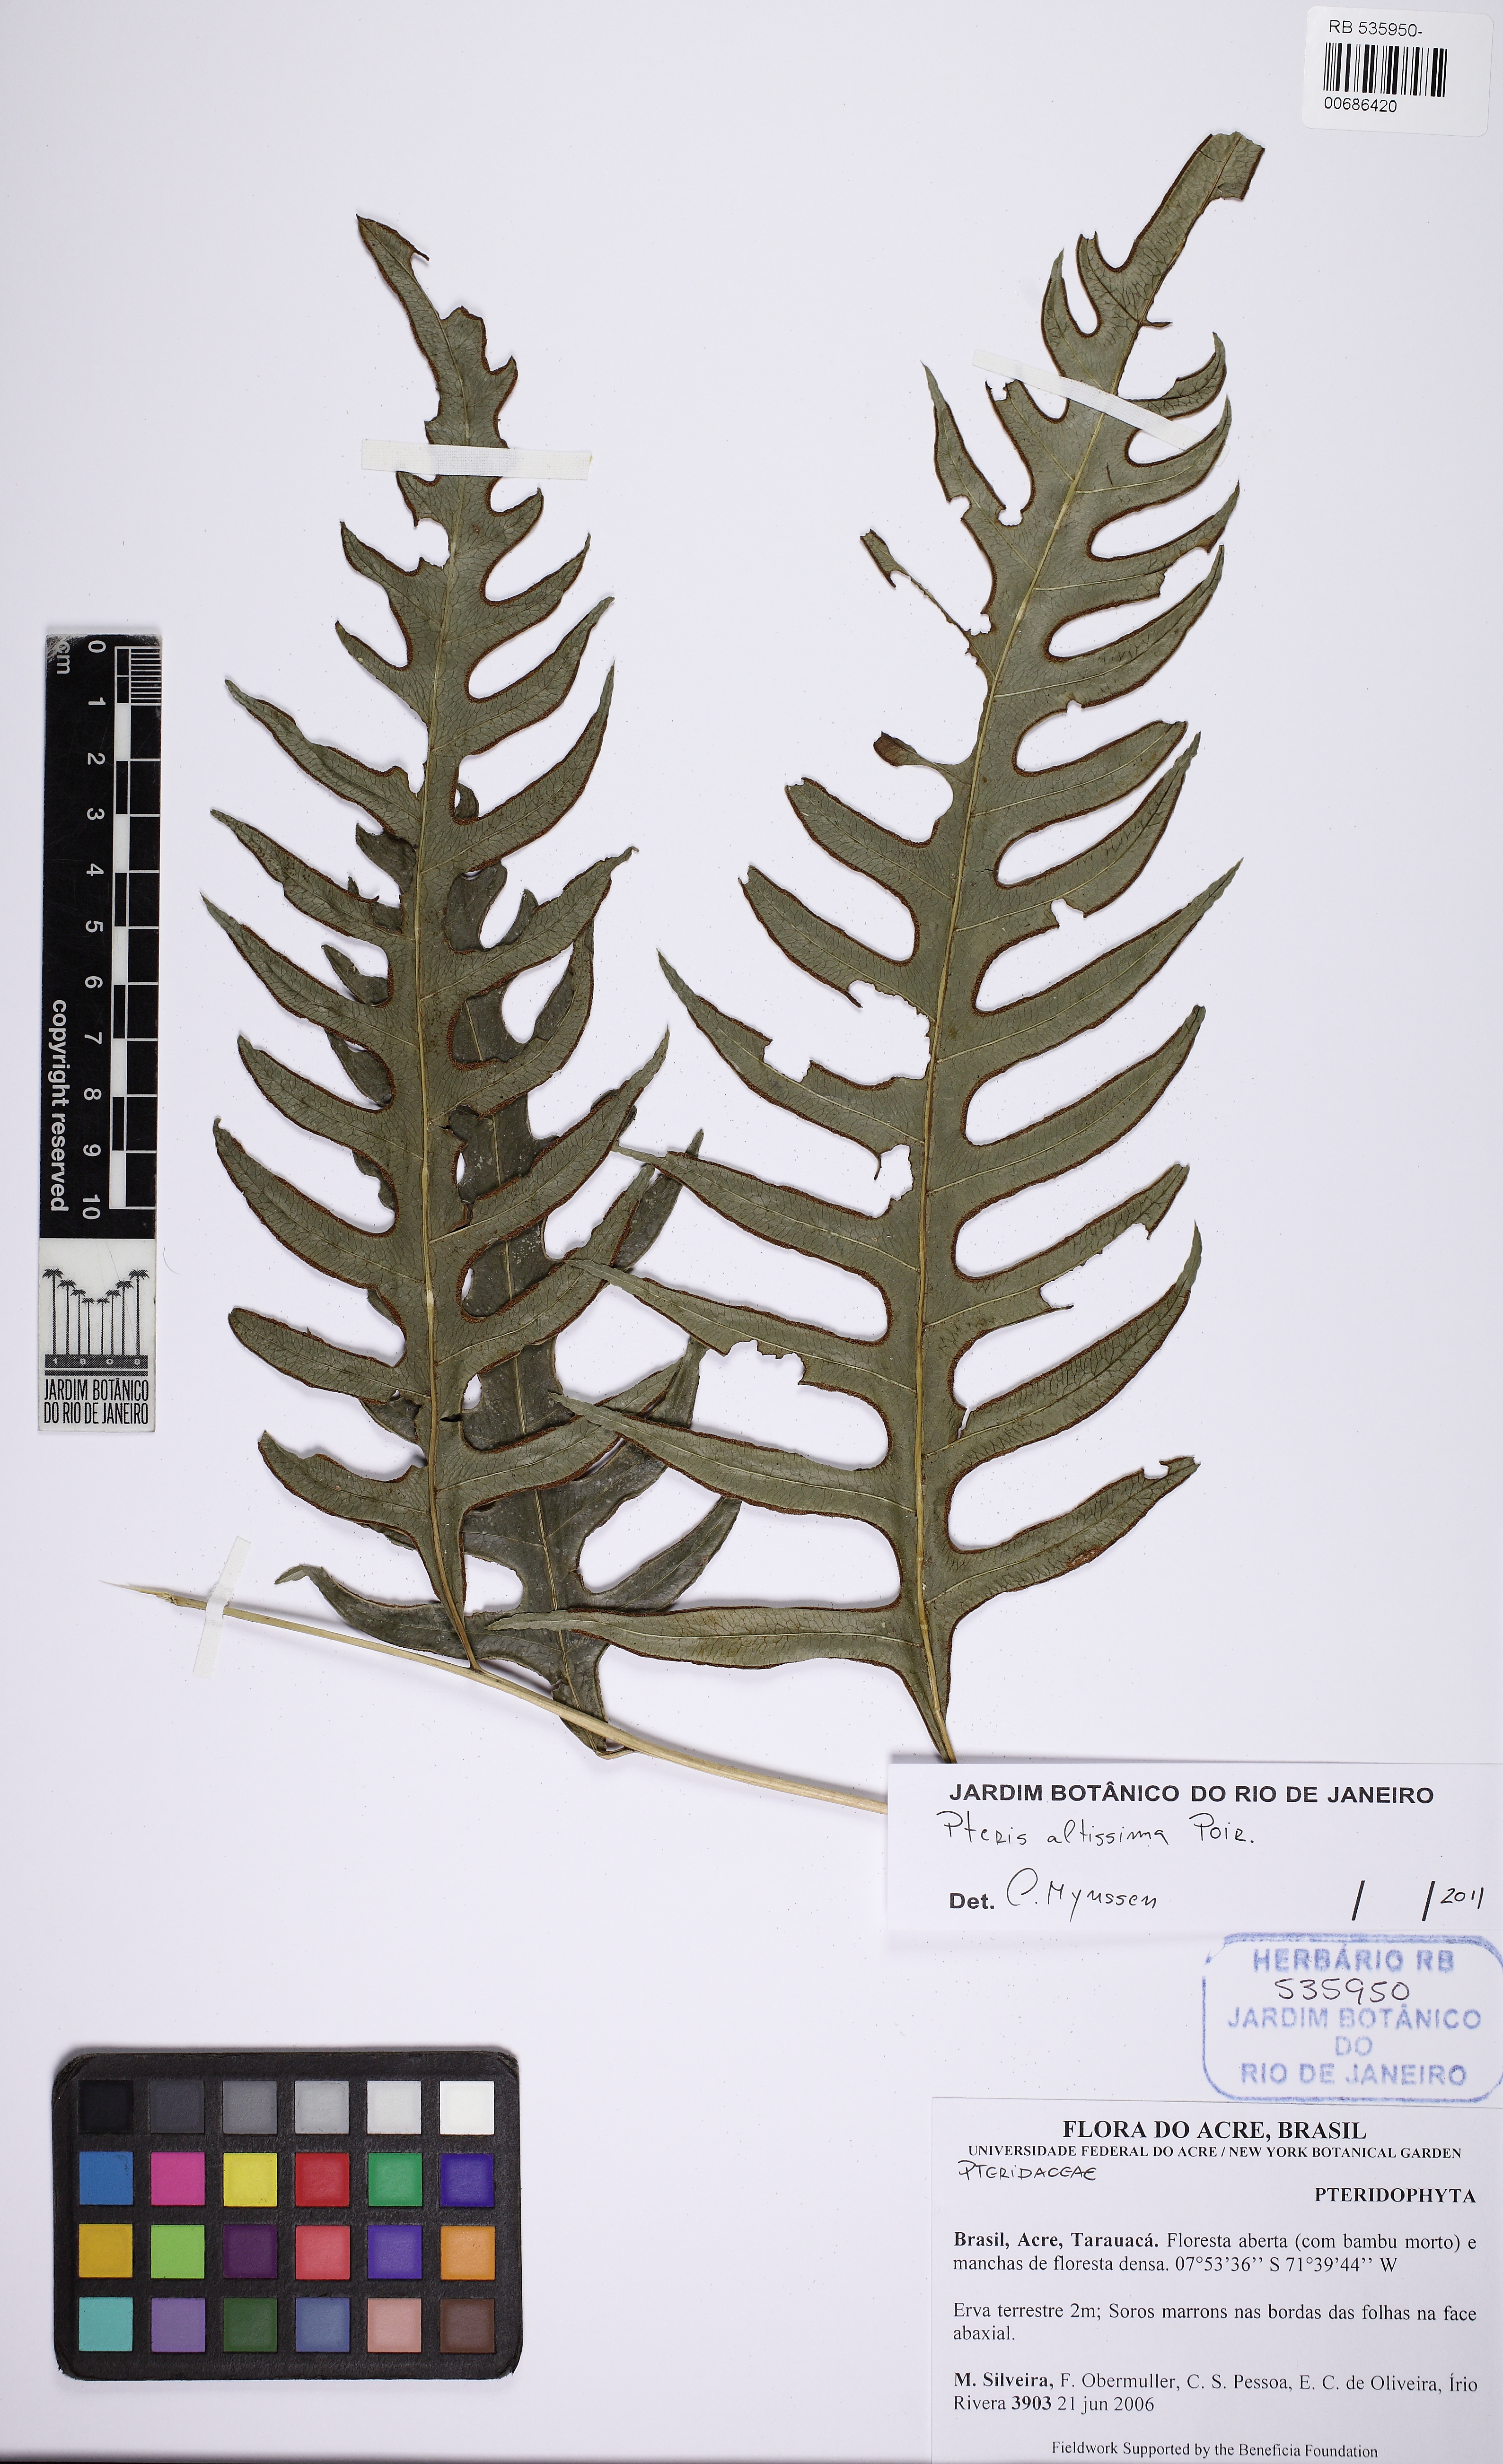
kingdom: Plantae
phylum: Tracheophyta
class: Polypodiopsida
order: Polypodiales
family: Pteridaceae
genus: Pteris
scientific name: Pteris altissima
